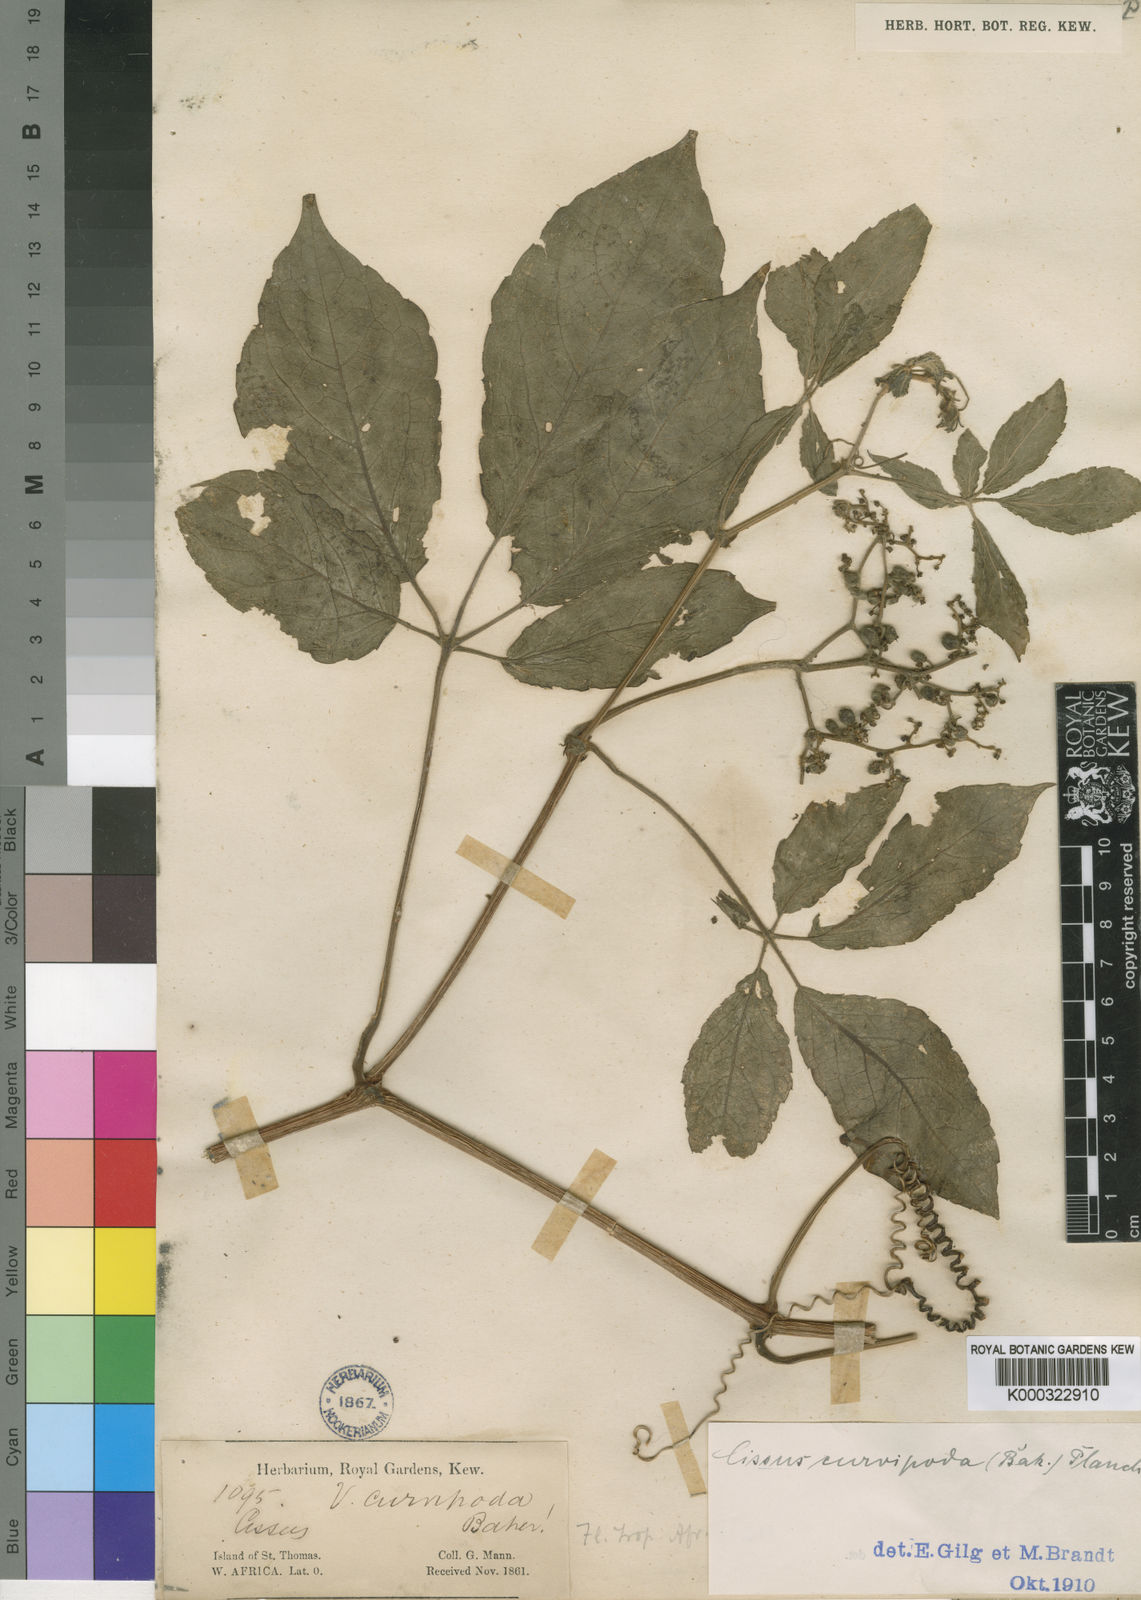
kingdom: Plantae
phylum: Tracheophyta
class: Magnoliopsida
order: Vitales
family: Vitaceae
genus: Cyphostemma
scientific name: Cyphostemma curvipodum
